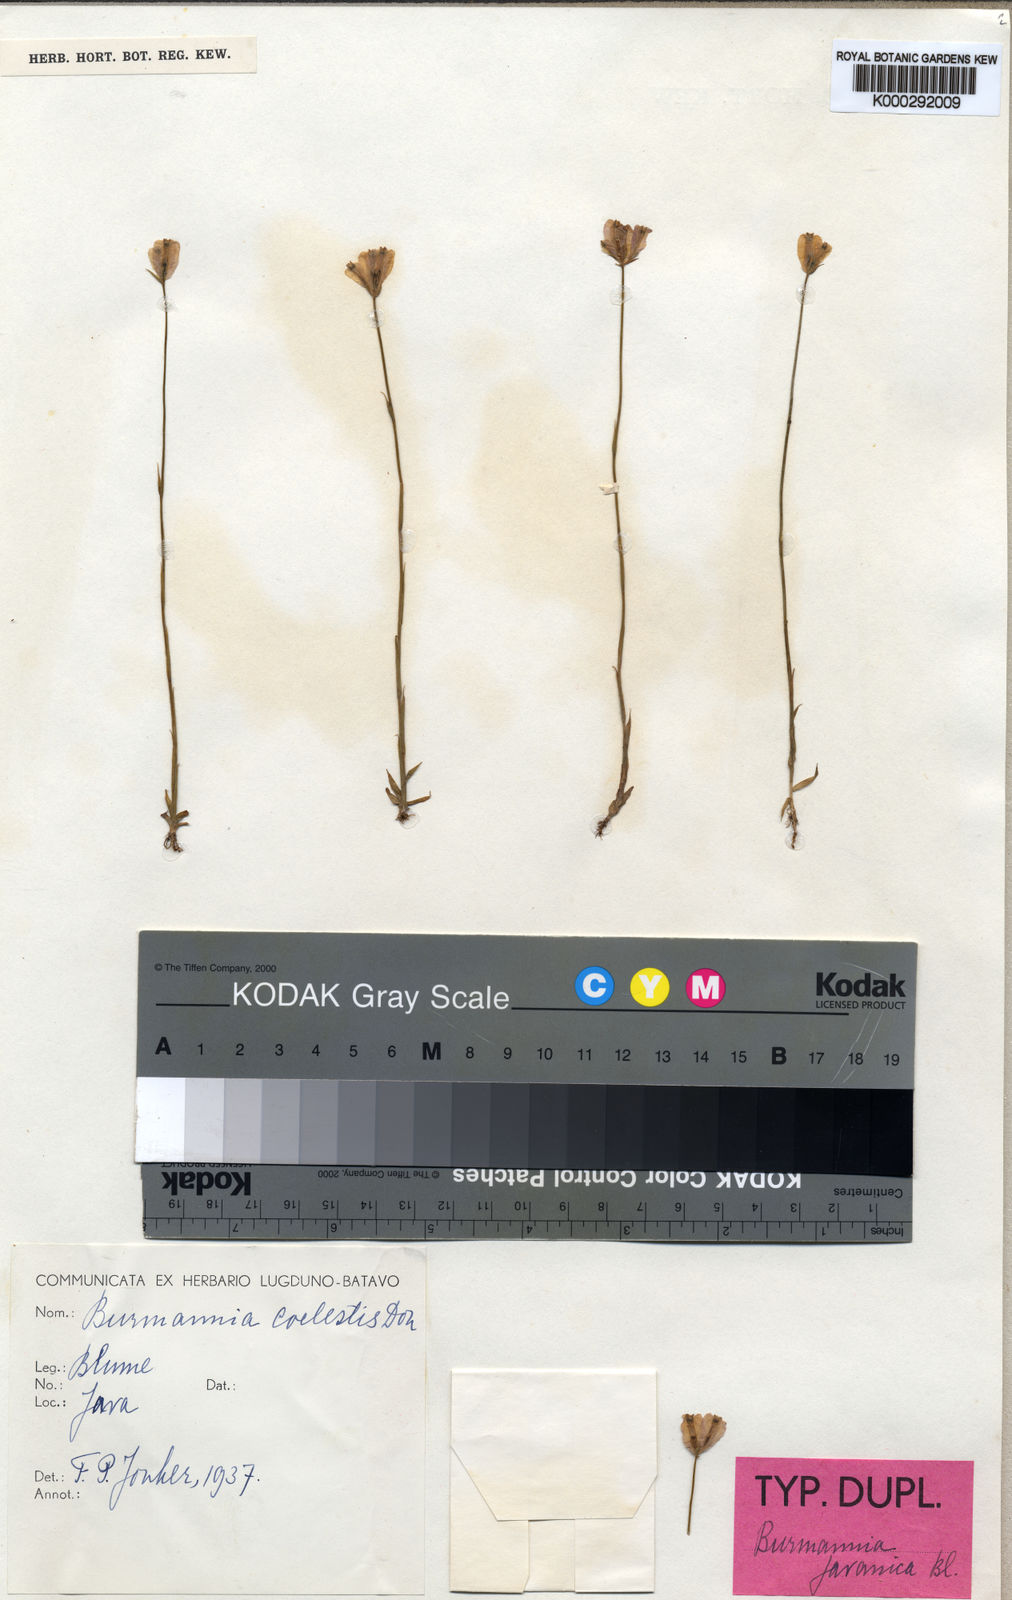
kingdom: Plantae
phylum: Tracheophyta
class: Liliopsida
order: Dioscoreales
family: Burmanniaceae
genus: Burmannia
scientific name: Burmannia coelestis
